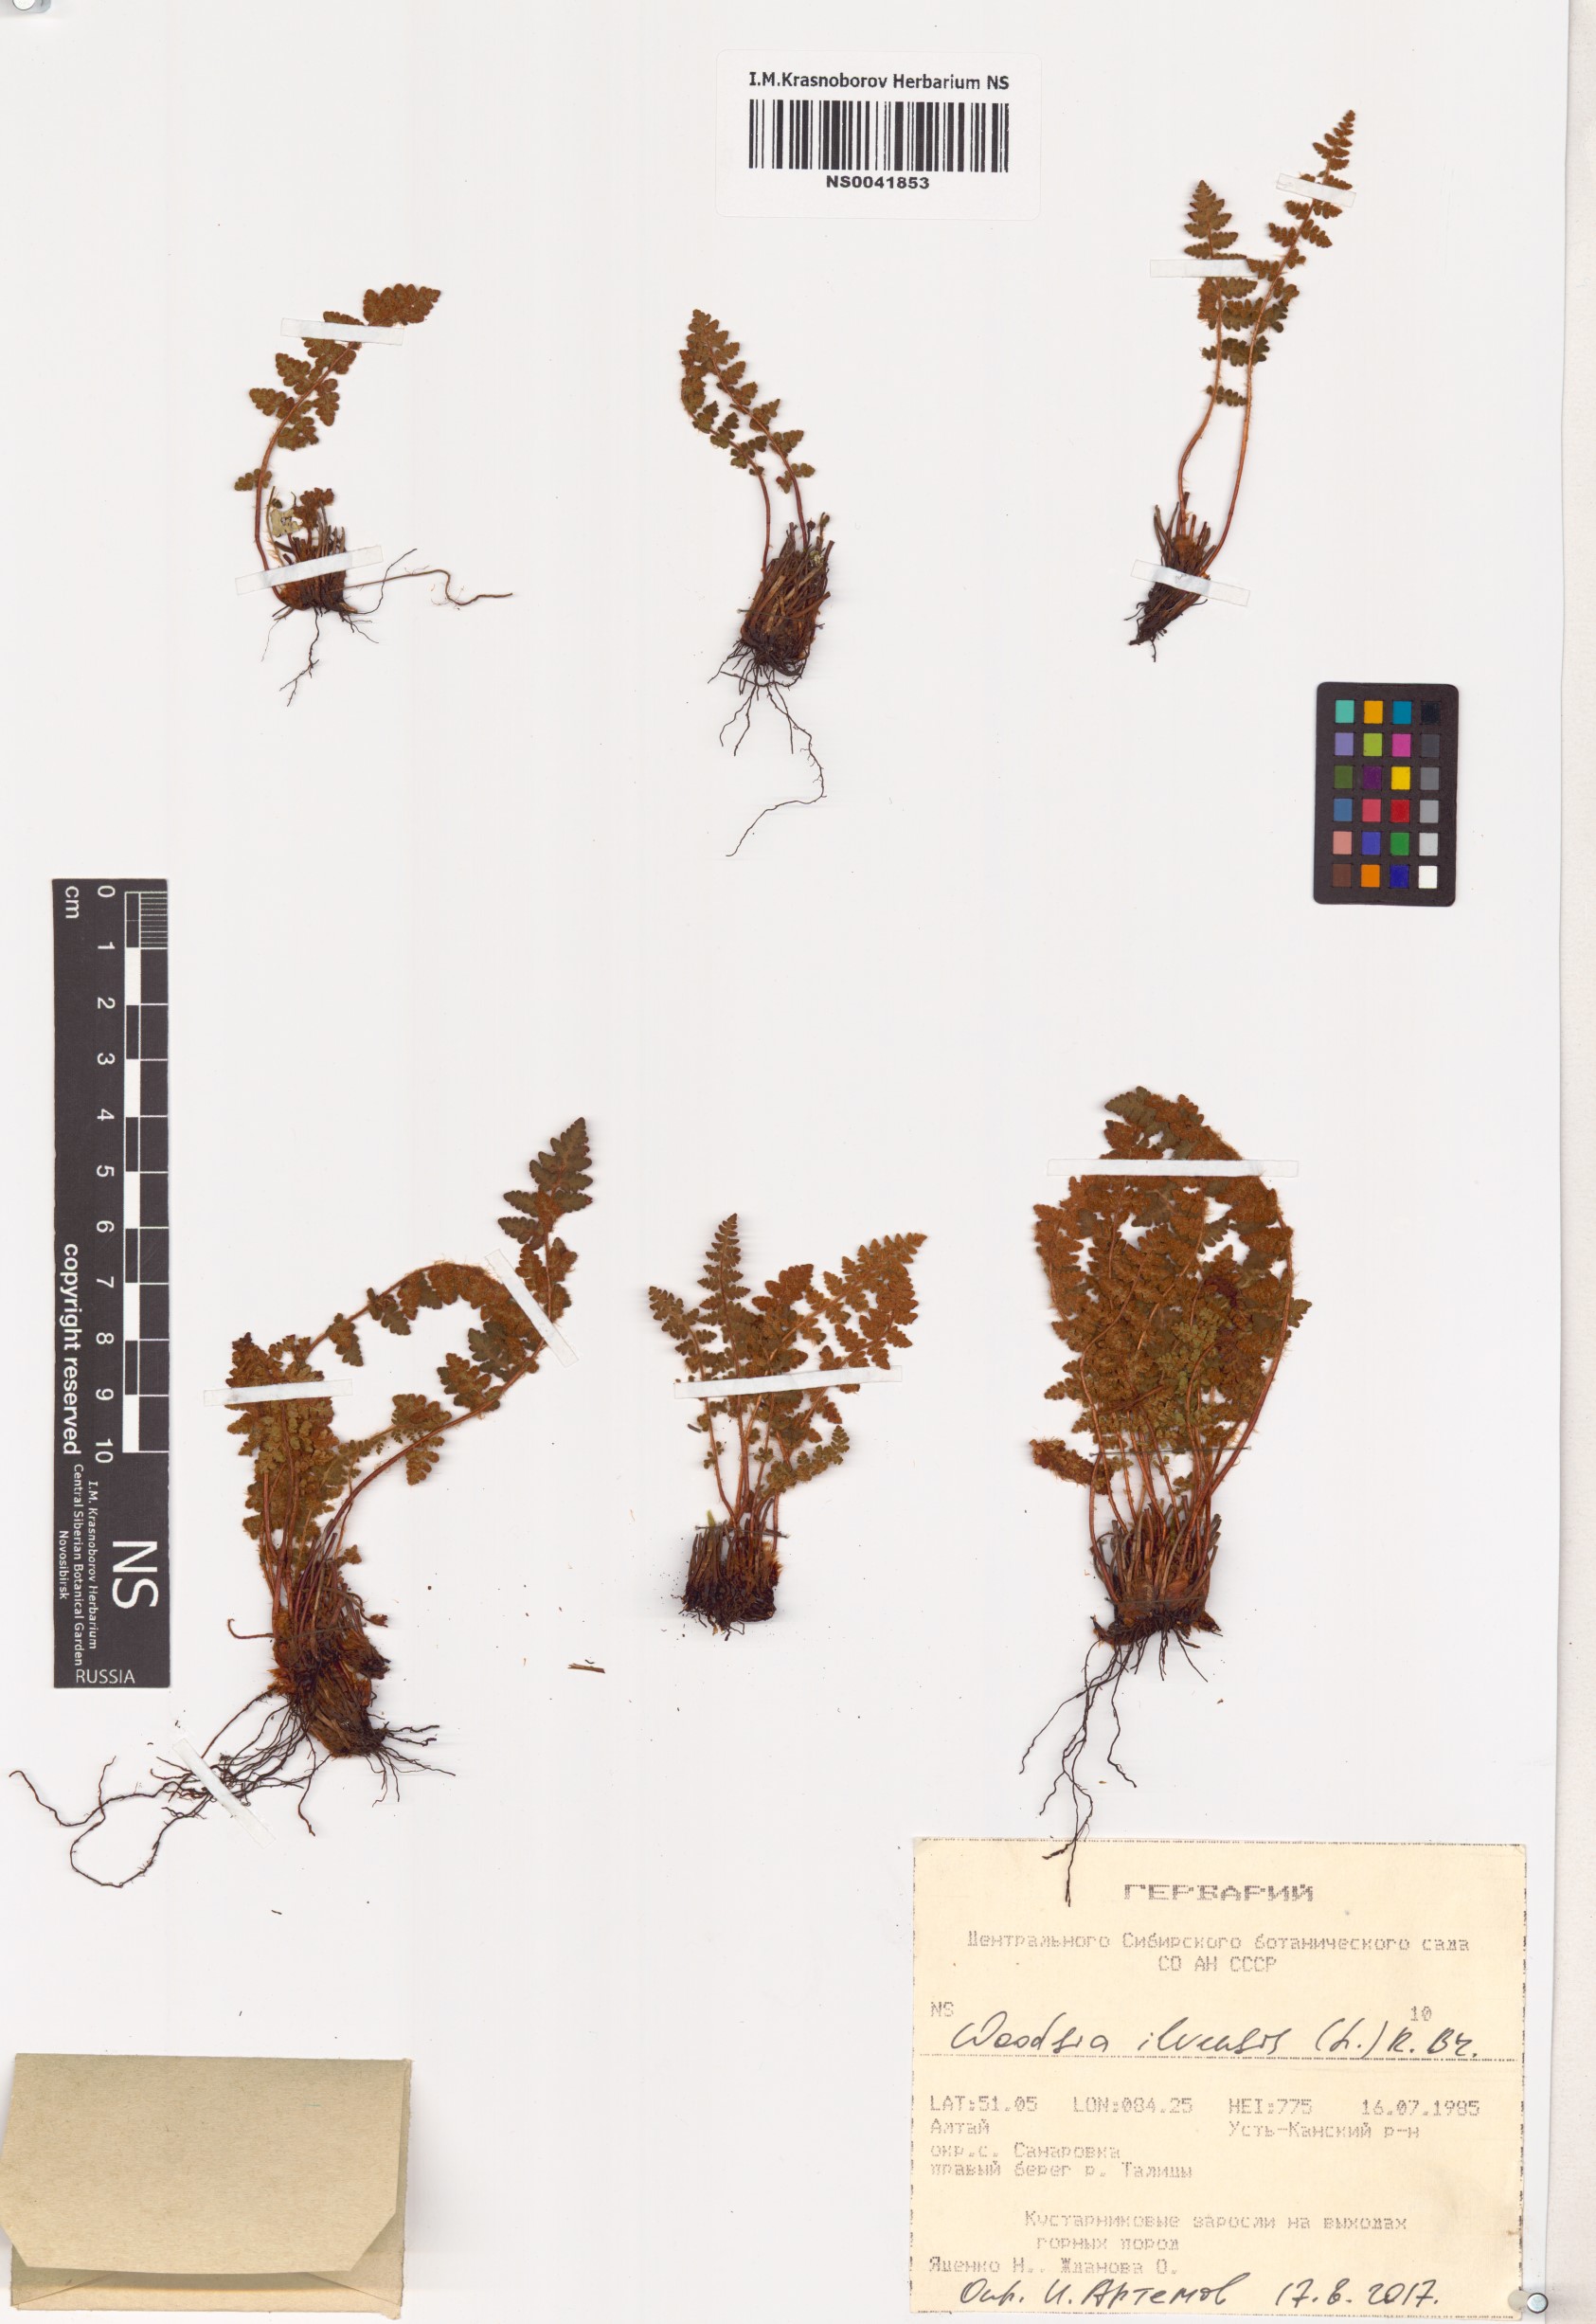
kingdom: Plantae
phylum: Tracheophyta
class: Polypodiopsida
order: Polypodiales
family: Woodsiaceae
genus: Woodsia
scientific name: Woodsia ilvensis
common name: Fragrant woodsia
